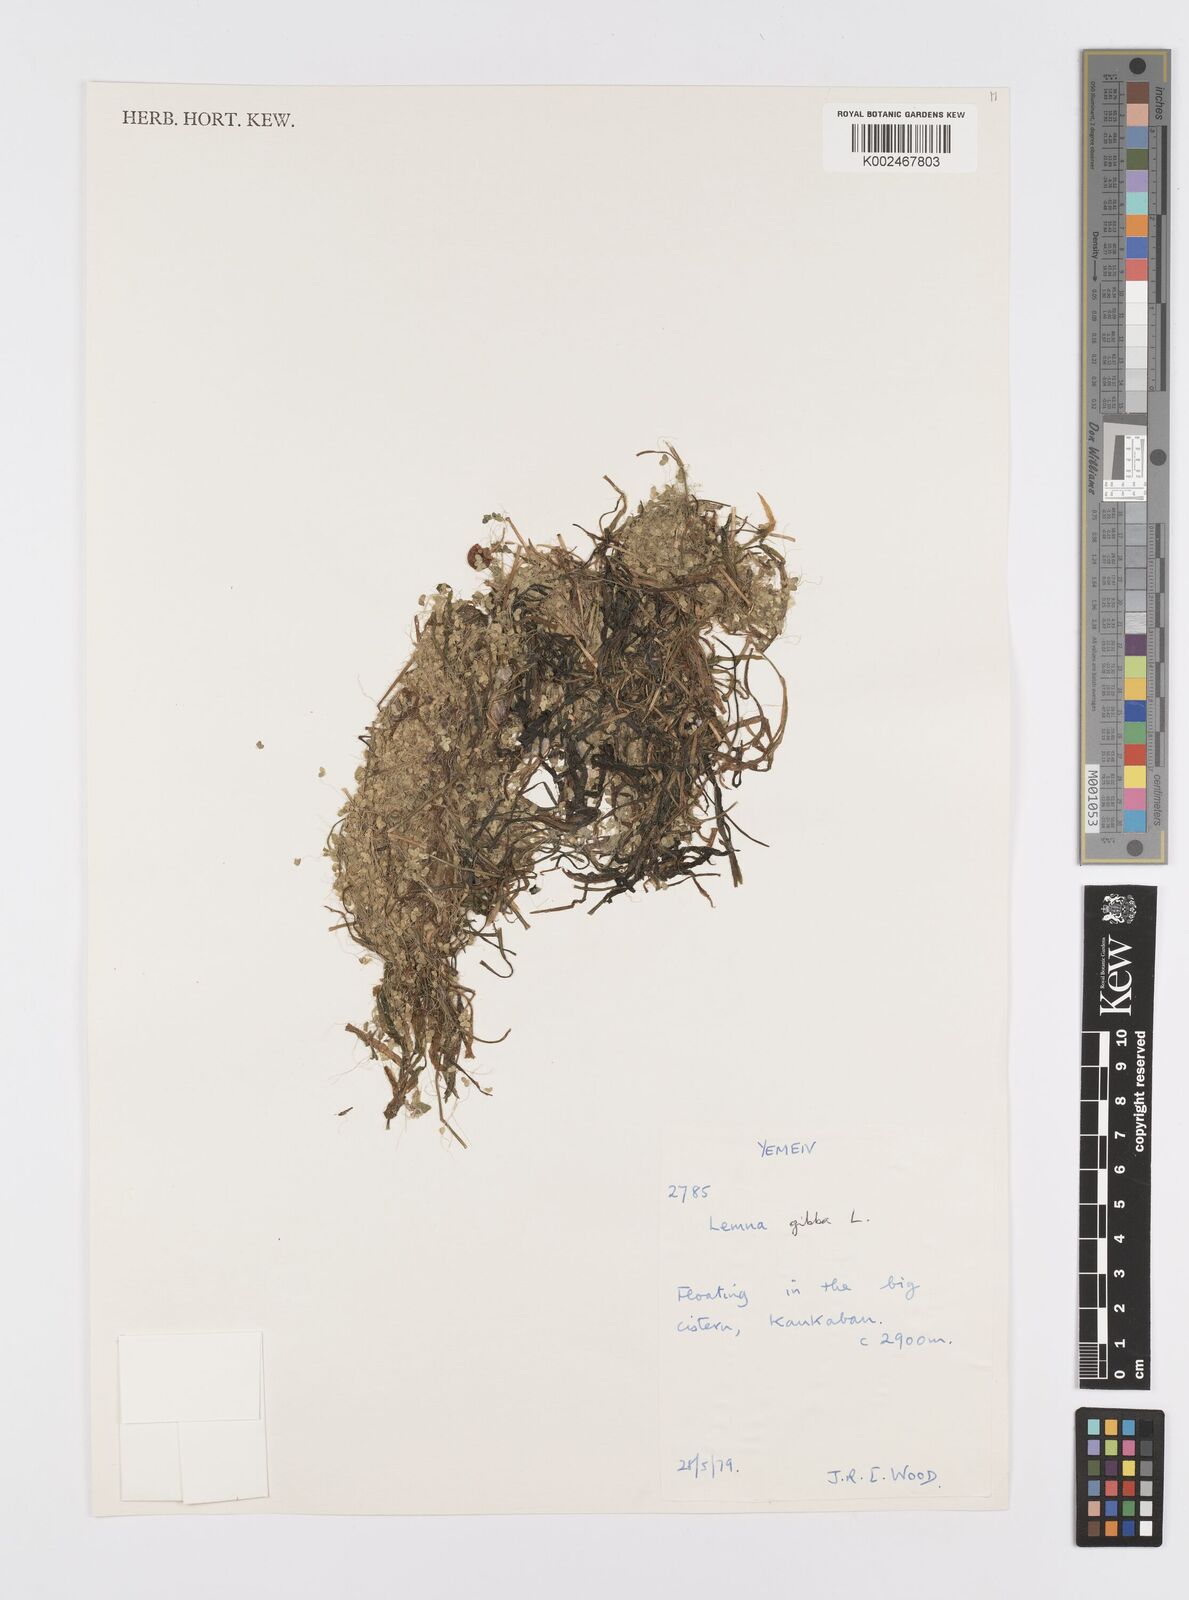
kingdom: Plantae
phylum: Tracheophyta
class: Liliopsida
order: Alismatales
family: Araceae
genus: Lemna
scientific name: Lemna gibba
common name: Fat duckweed
